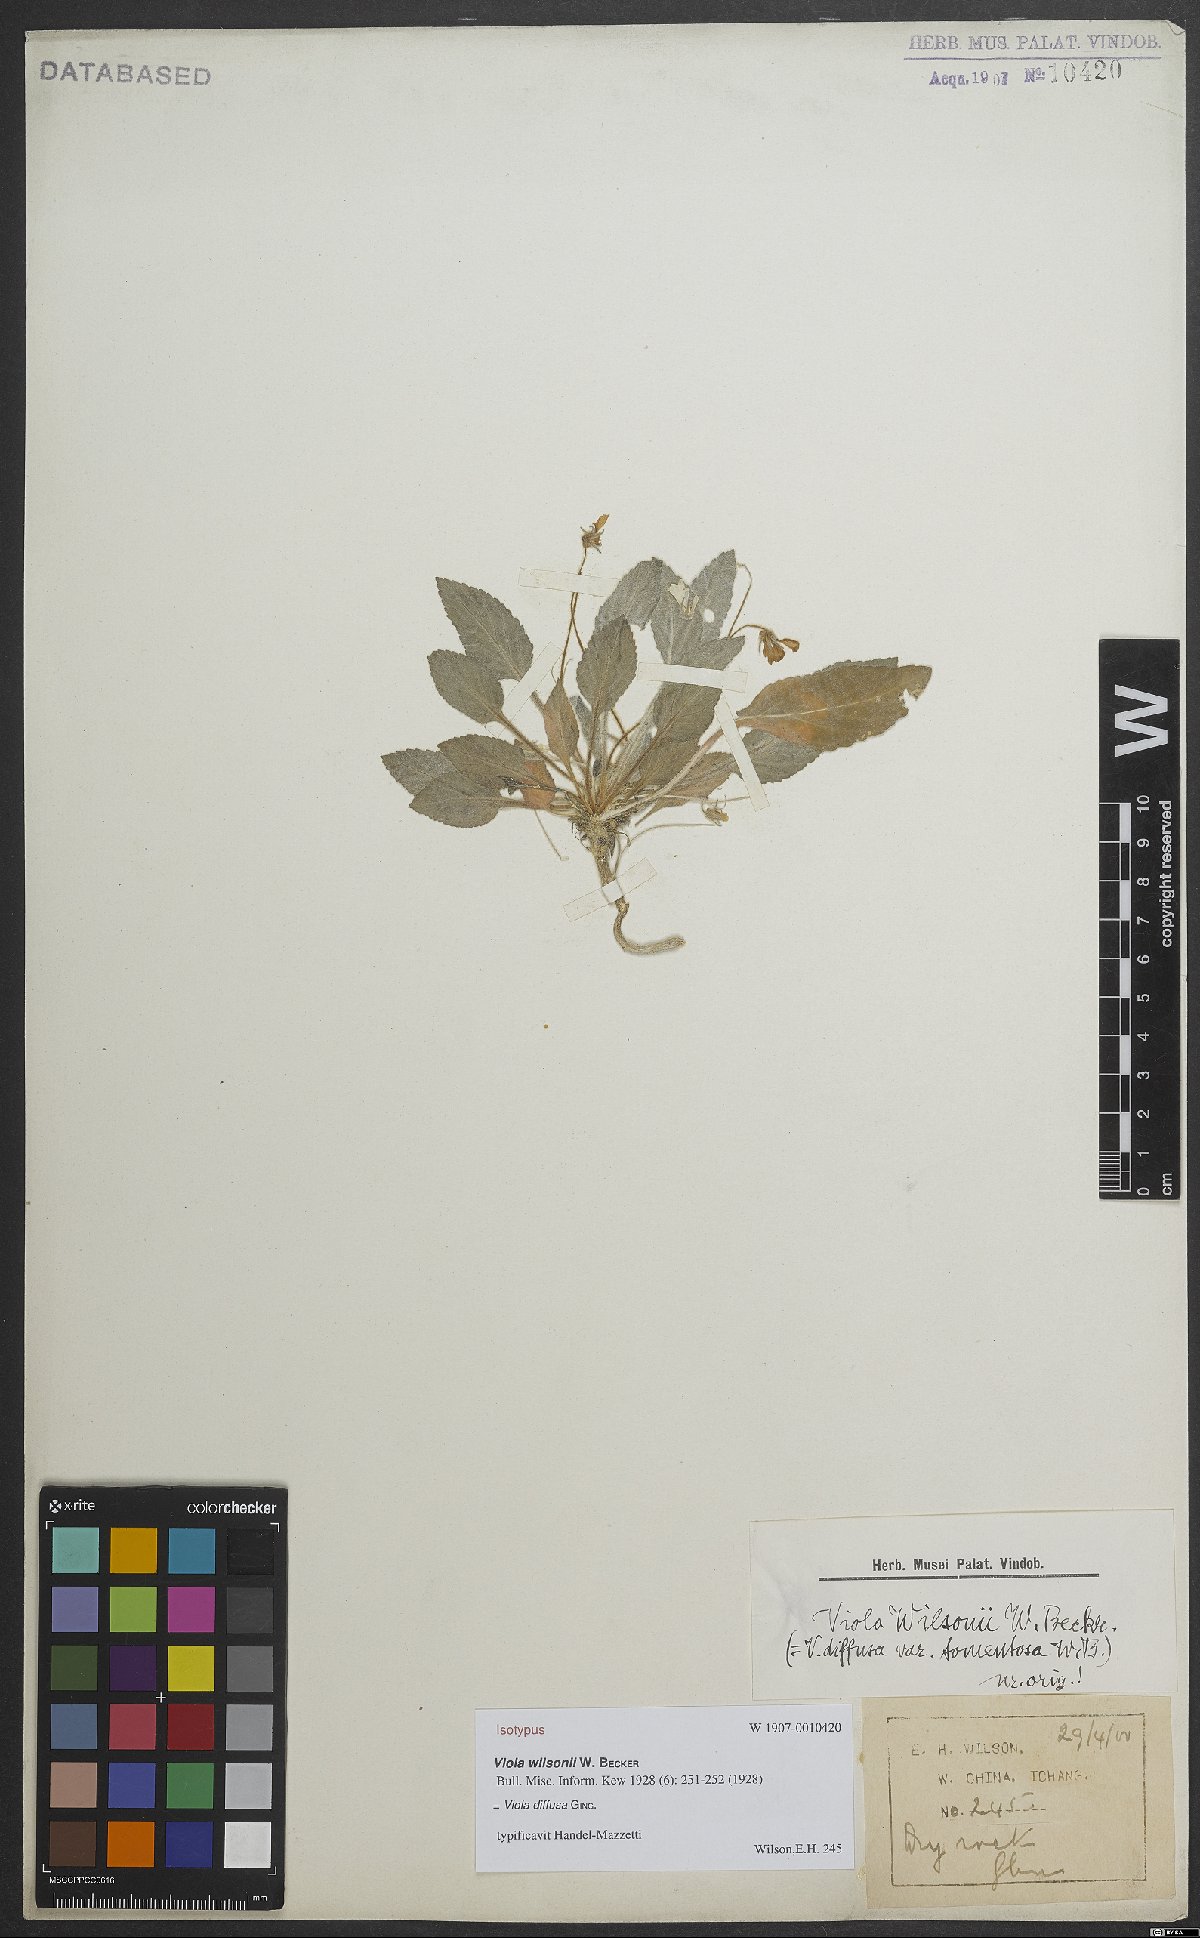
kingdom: Plantae
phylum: Tracheophyta
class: Magnoliopsida
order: Malpighiales
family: Violaceae
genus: Viola
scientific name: Viola diffusa
